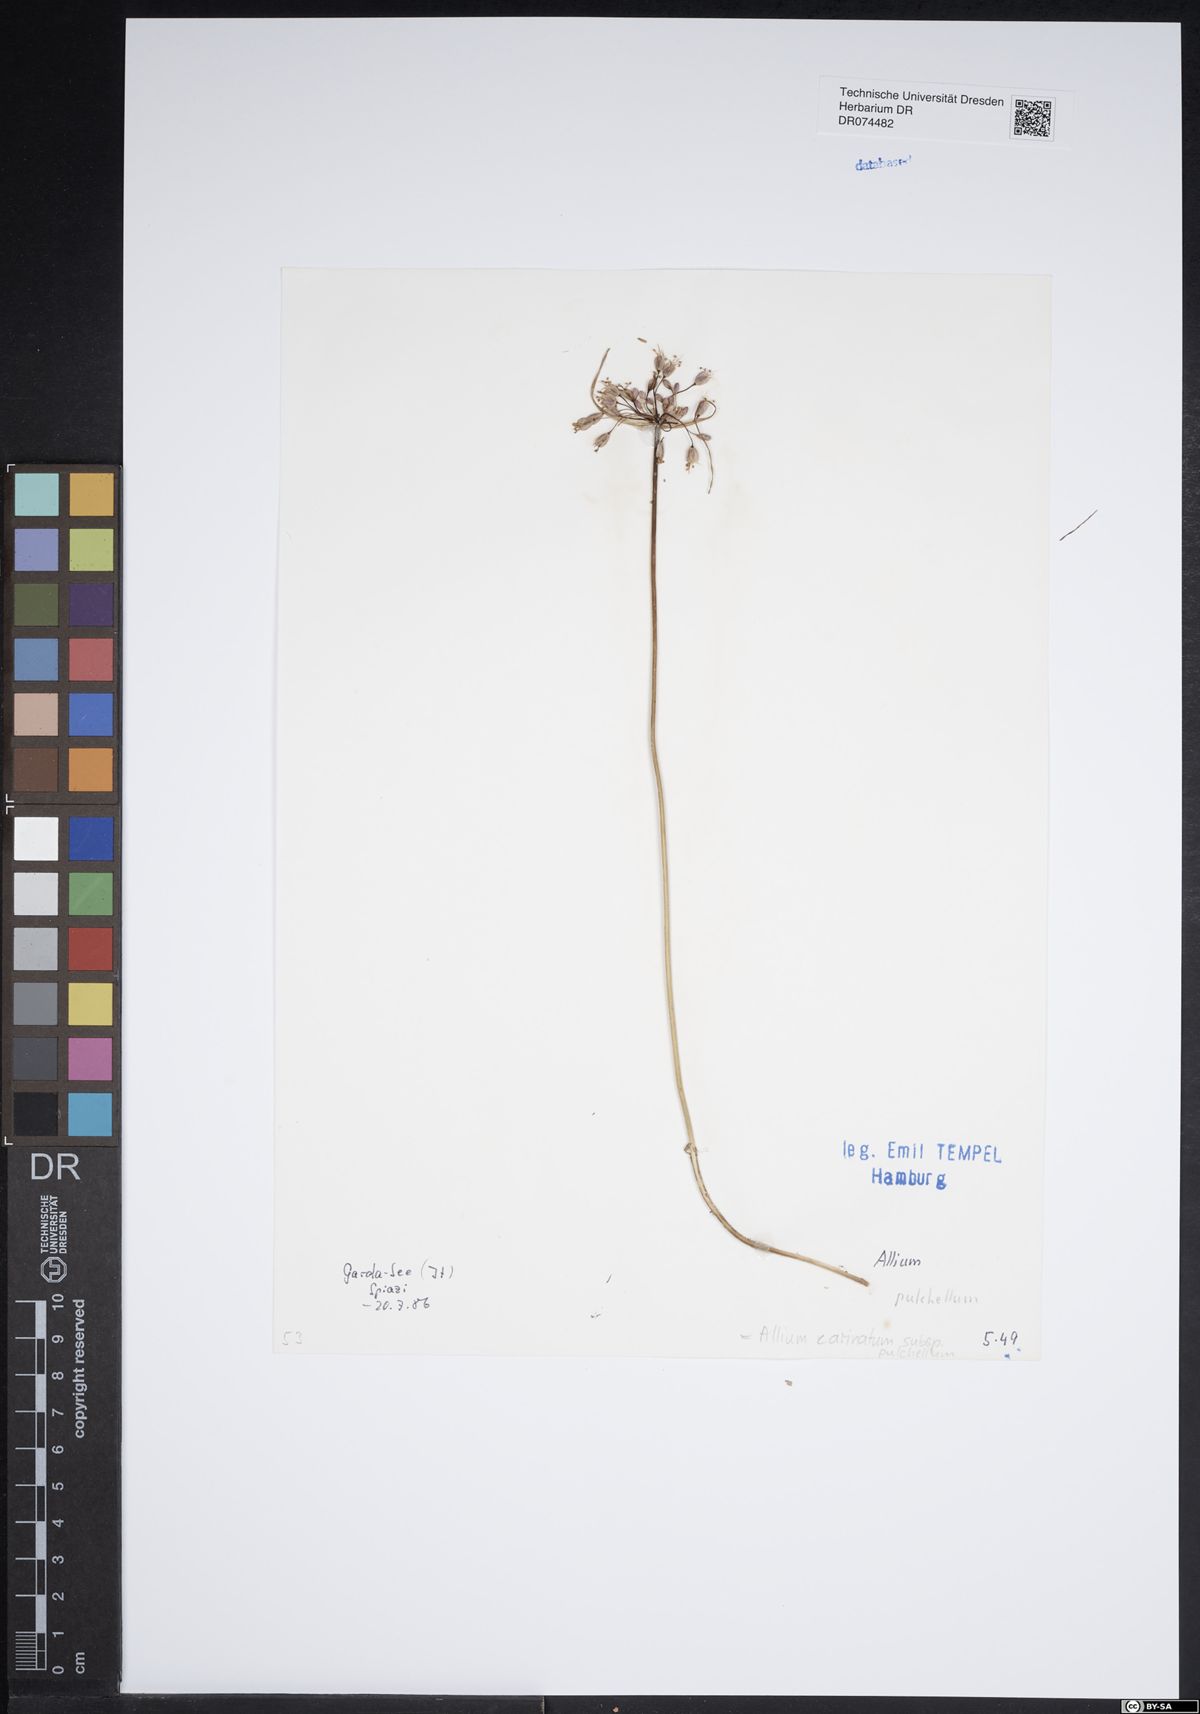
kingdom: Plantae
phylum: Tracheophyta
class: Liliopsida
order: Asparagales
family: Amaryllidaceae
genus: Allium
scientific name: Allium coloratum
